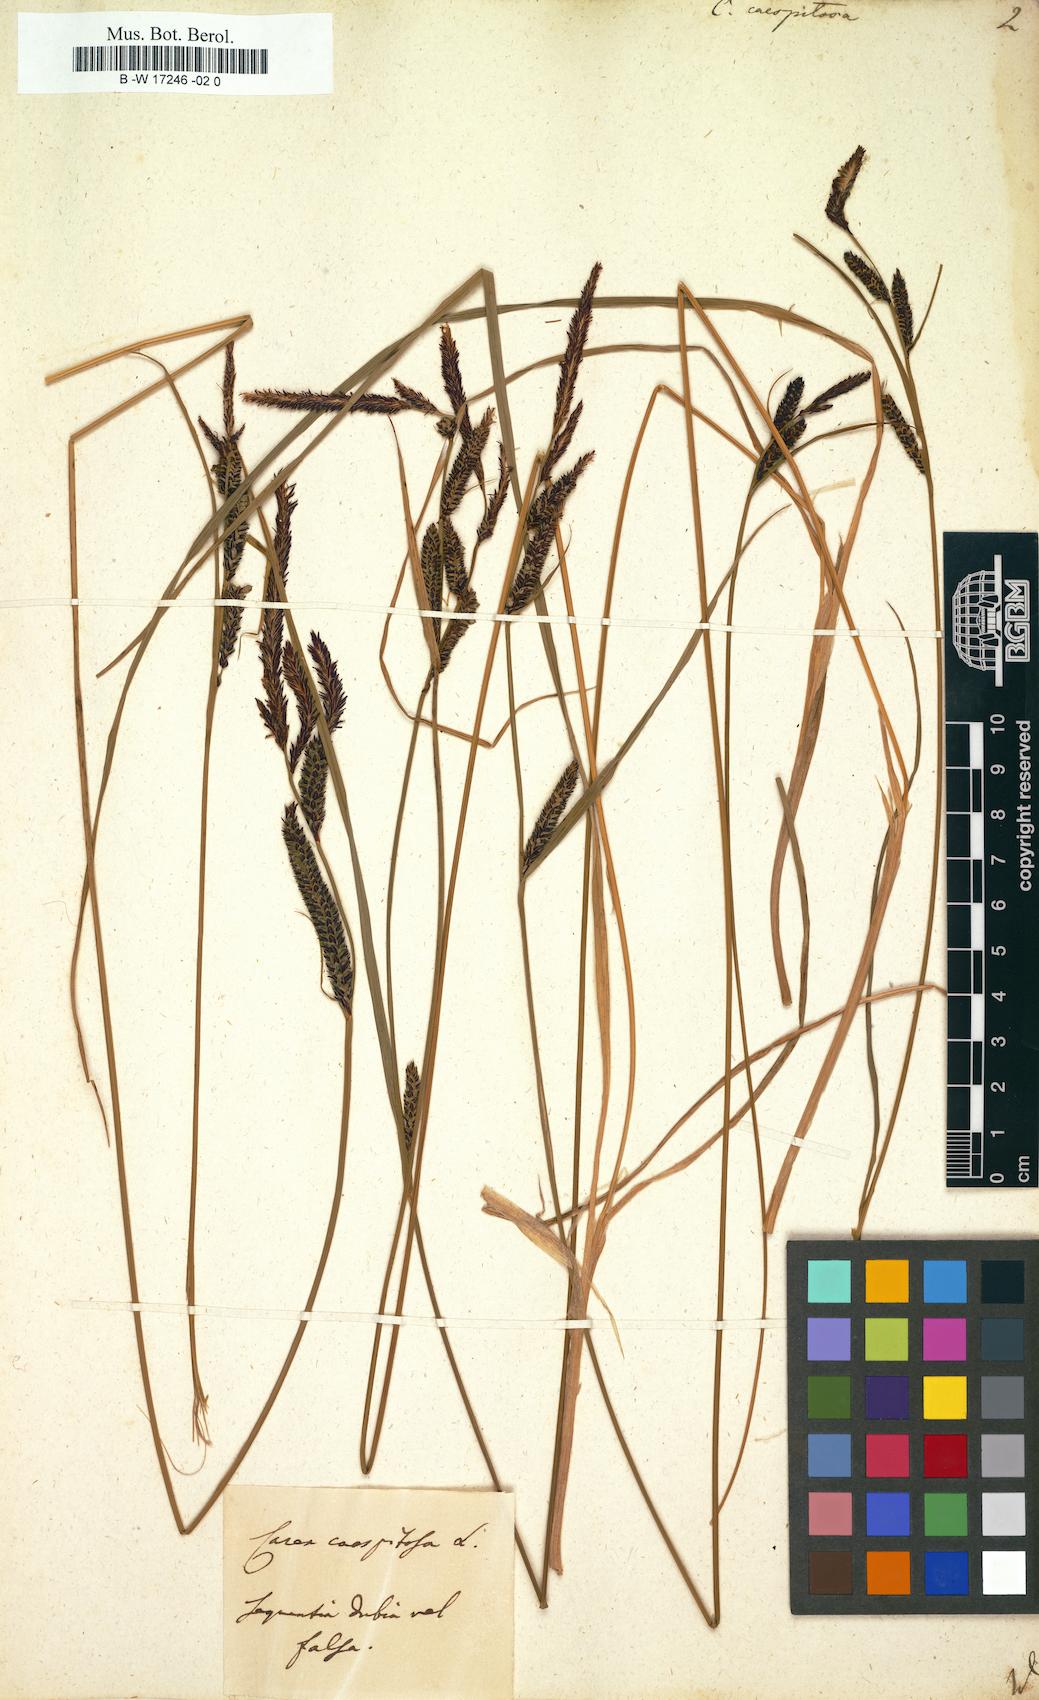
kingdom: Plantae
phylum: Tracheophyta
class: Liliopsida
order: Poales
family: Cyperaceae
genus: Carex
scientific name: Carex cespitosa
